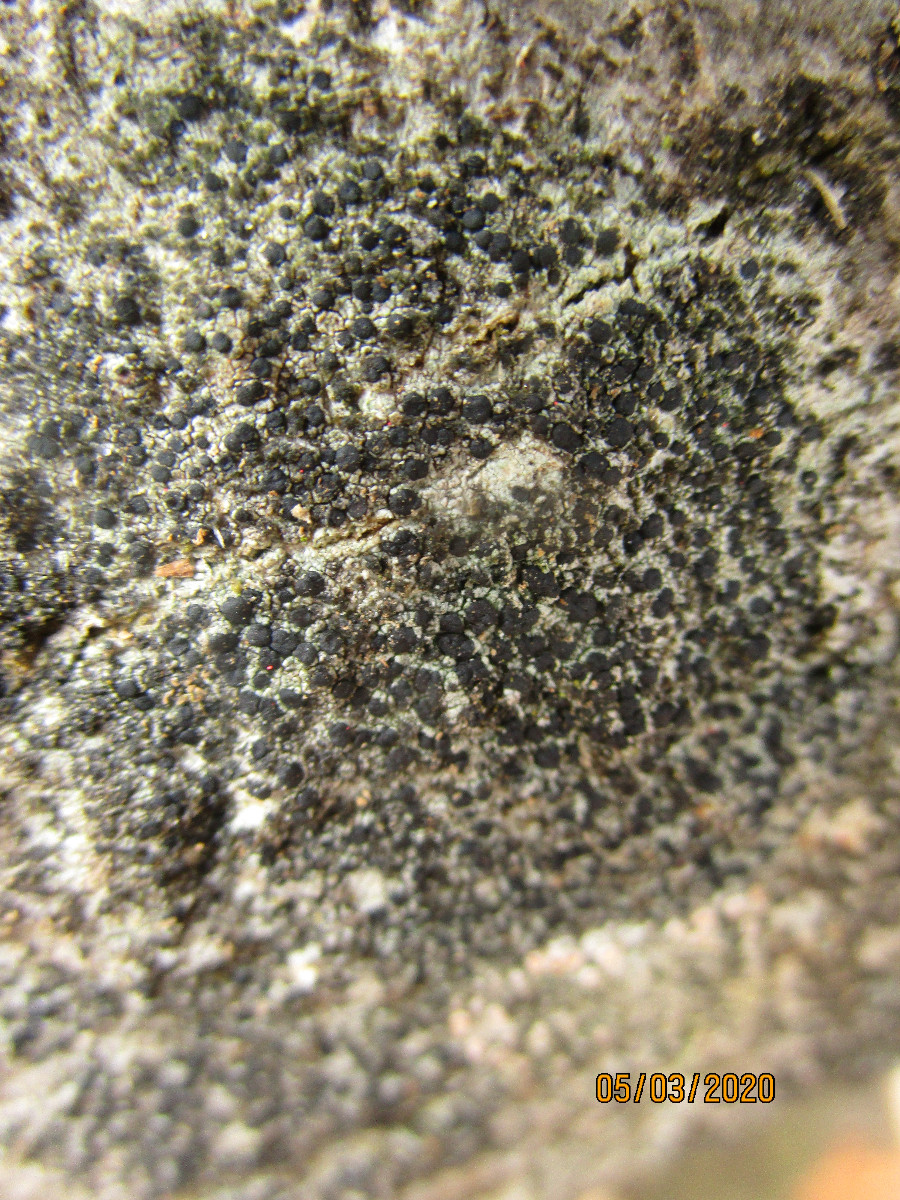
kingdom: Fungi
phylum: Ascomycota
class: Lecanoromycetes
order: Lecanorales
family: Lecanoraceae
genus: Lecidella
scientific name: Lecidella euphorea
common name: vortet skivelav
